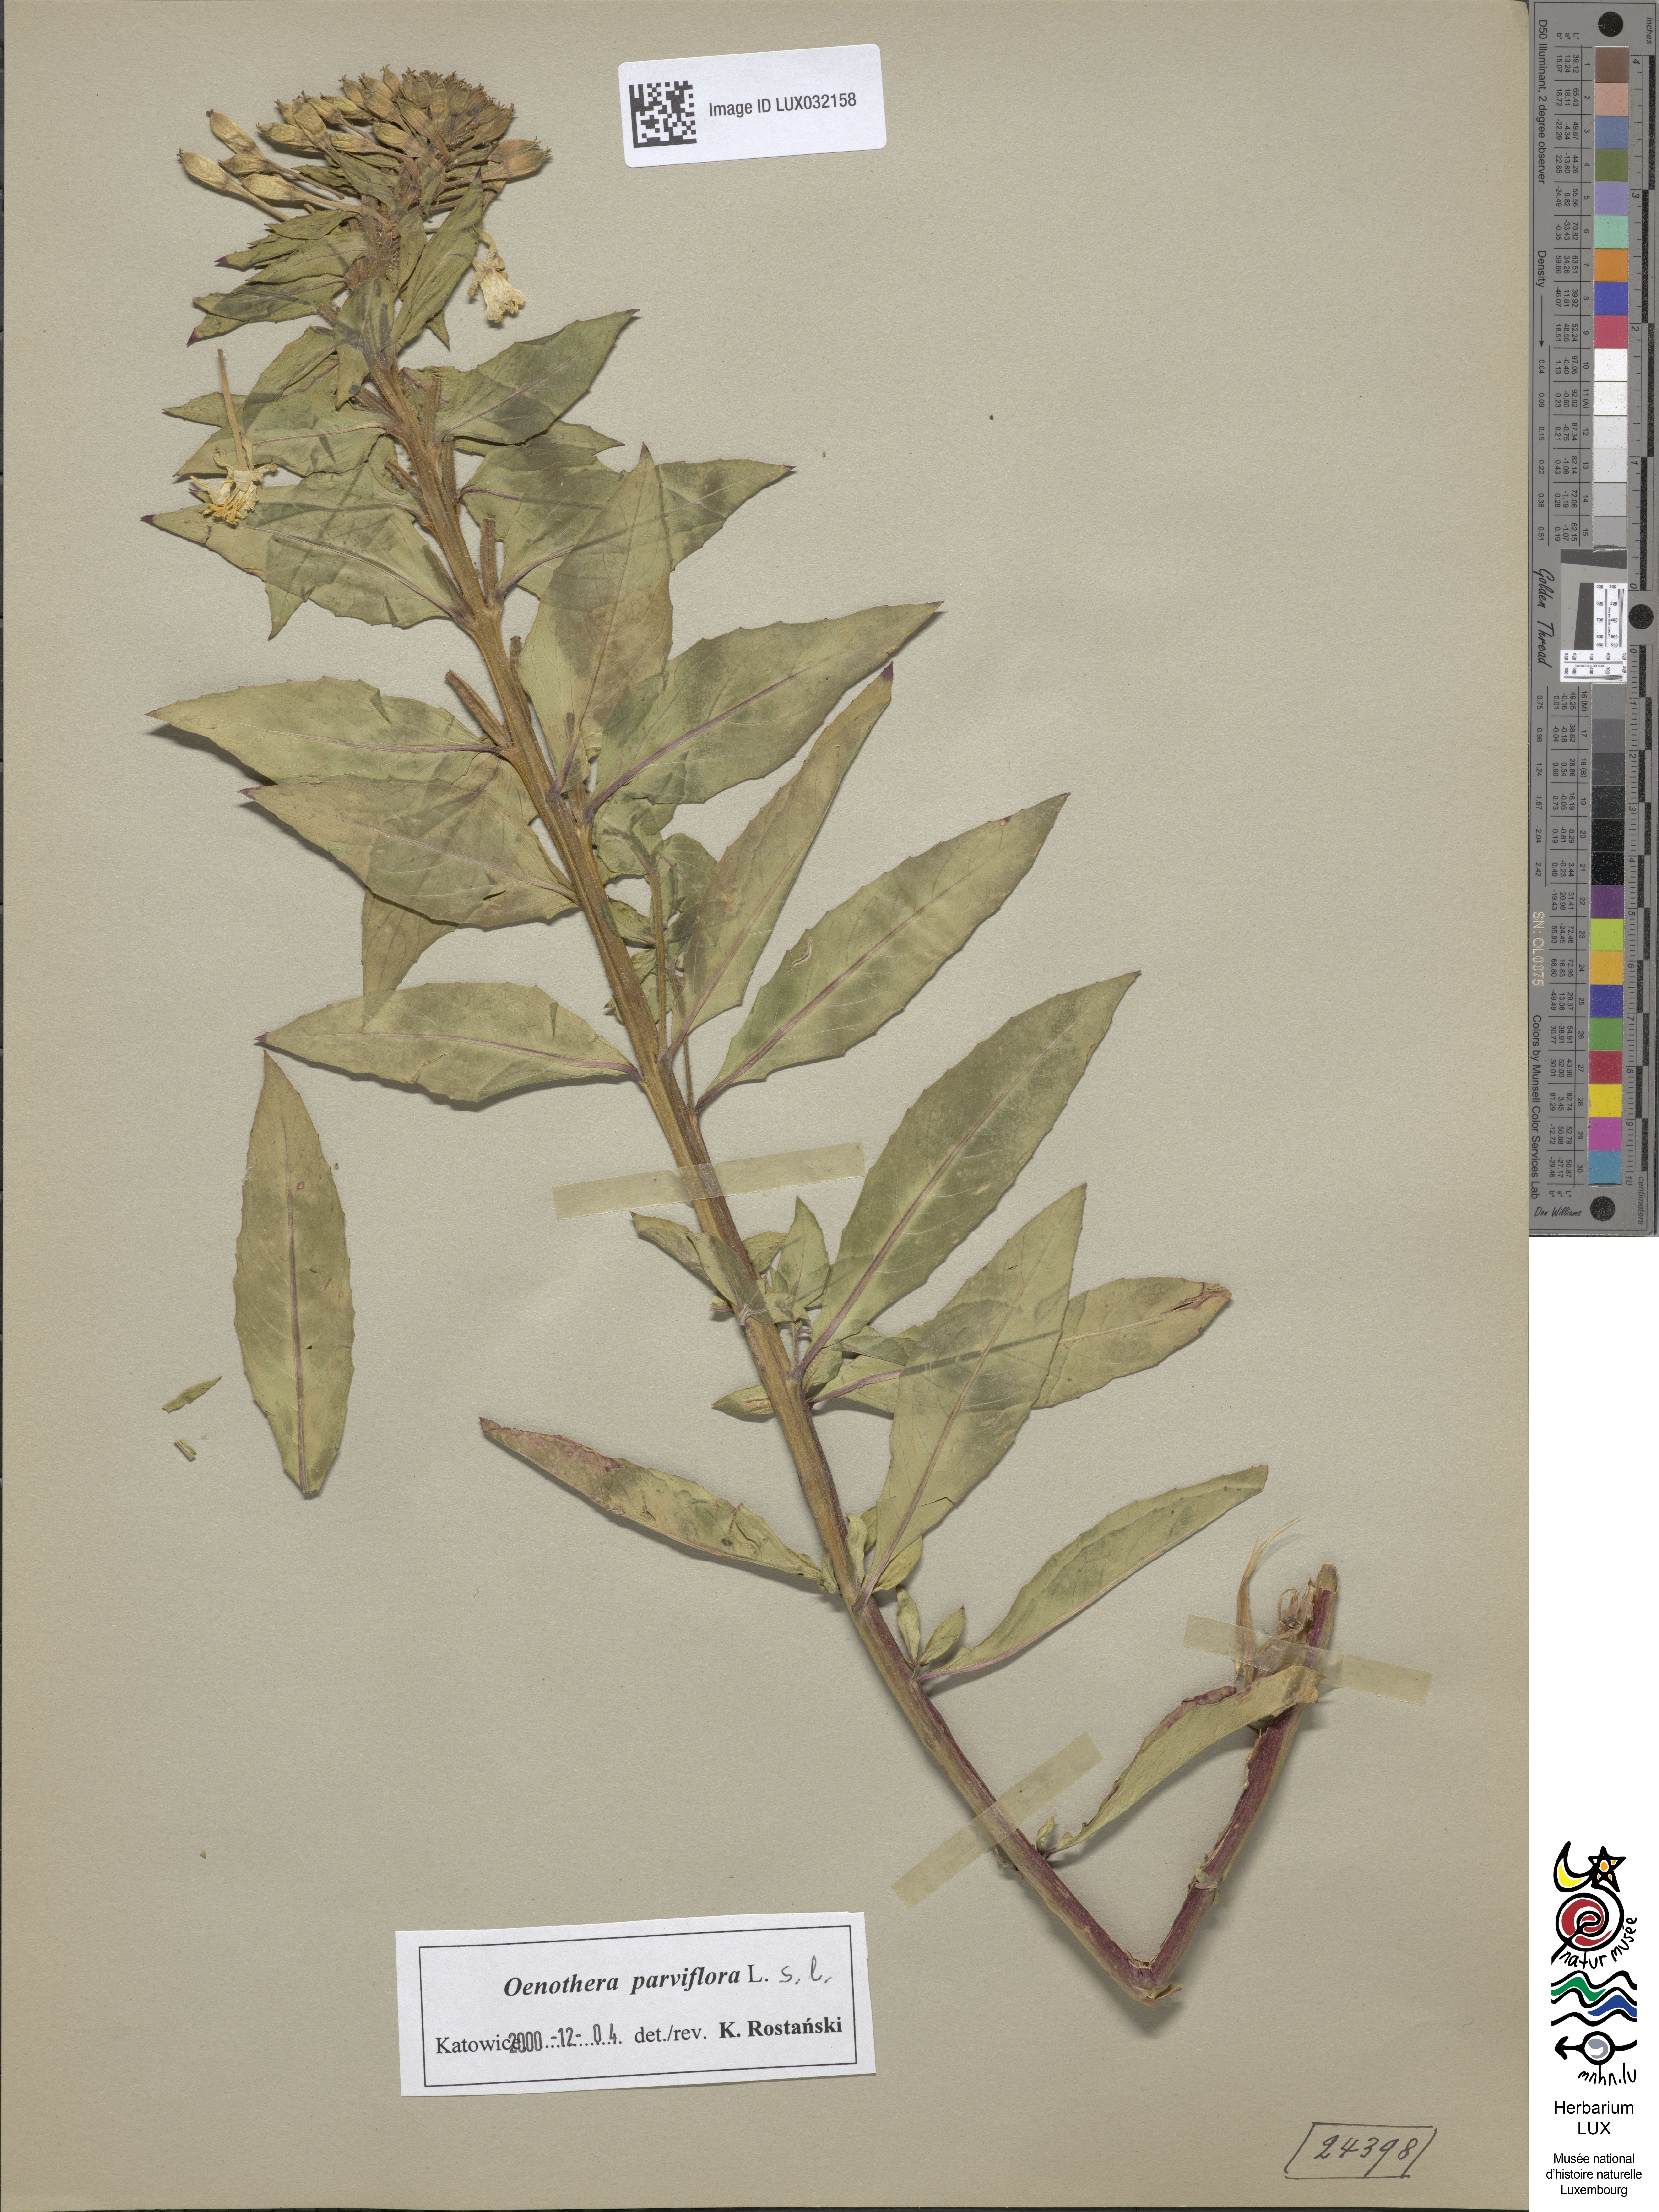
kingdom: Plantae
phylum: Tracheophyta
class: Magnoliopsida
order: Myrtales
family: Onagraceae
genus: Oenothera
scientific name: Oenothera parviflora
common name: Least evening-primrose
